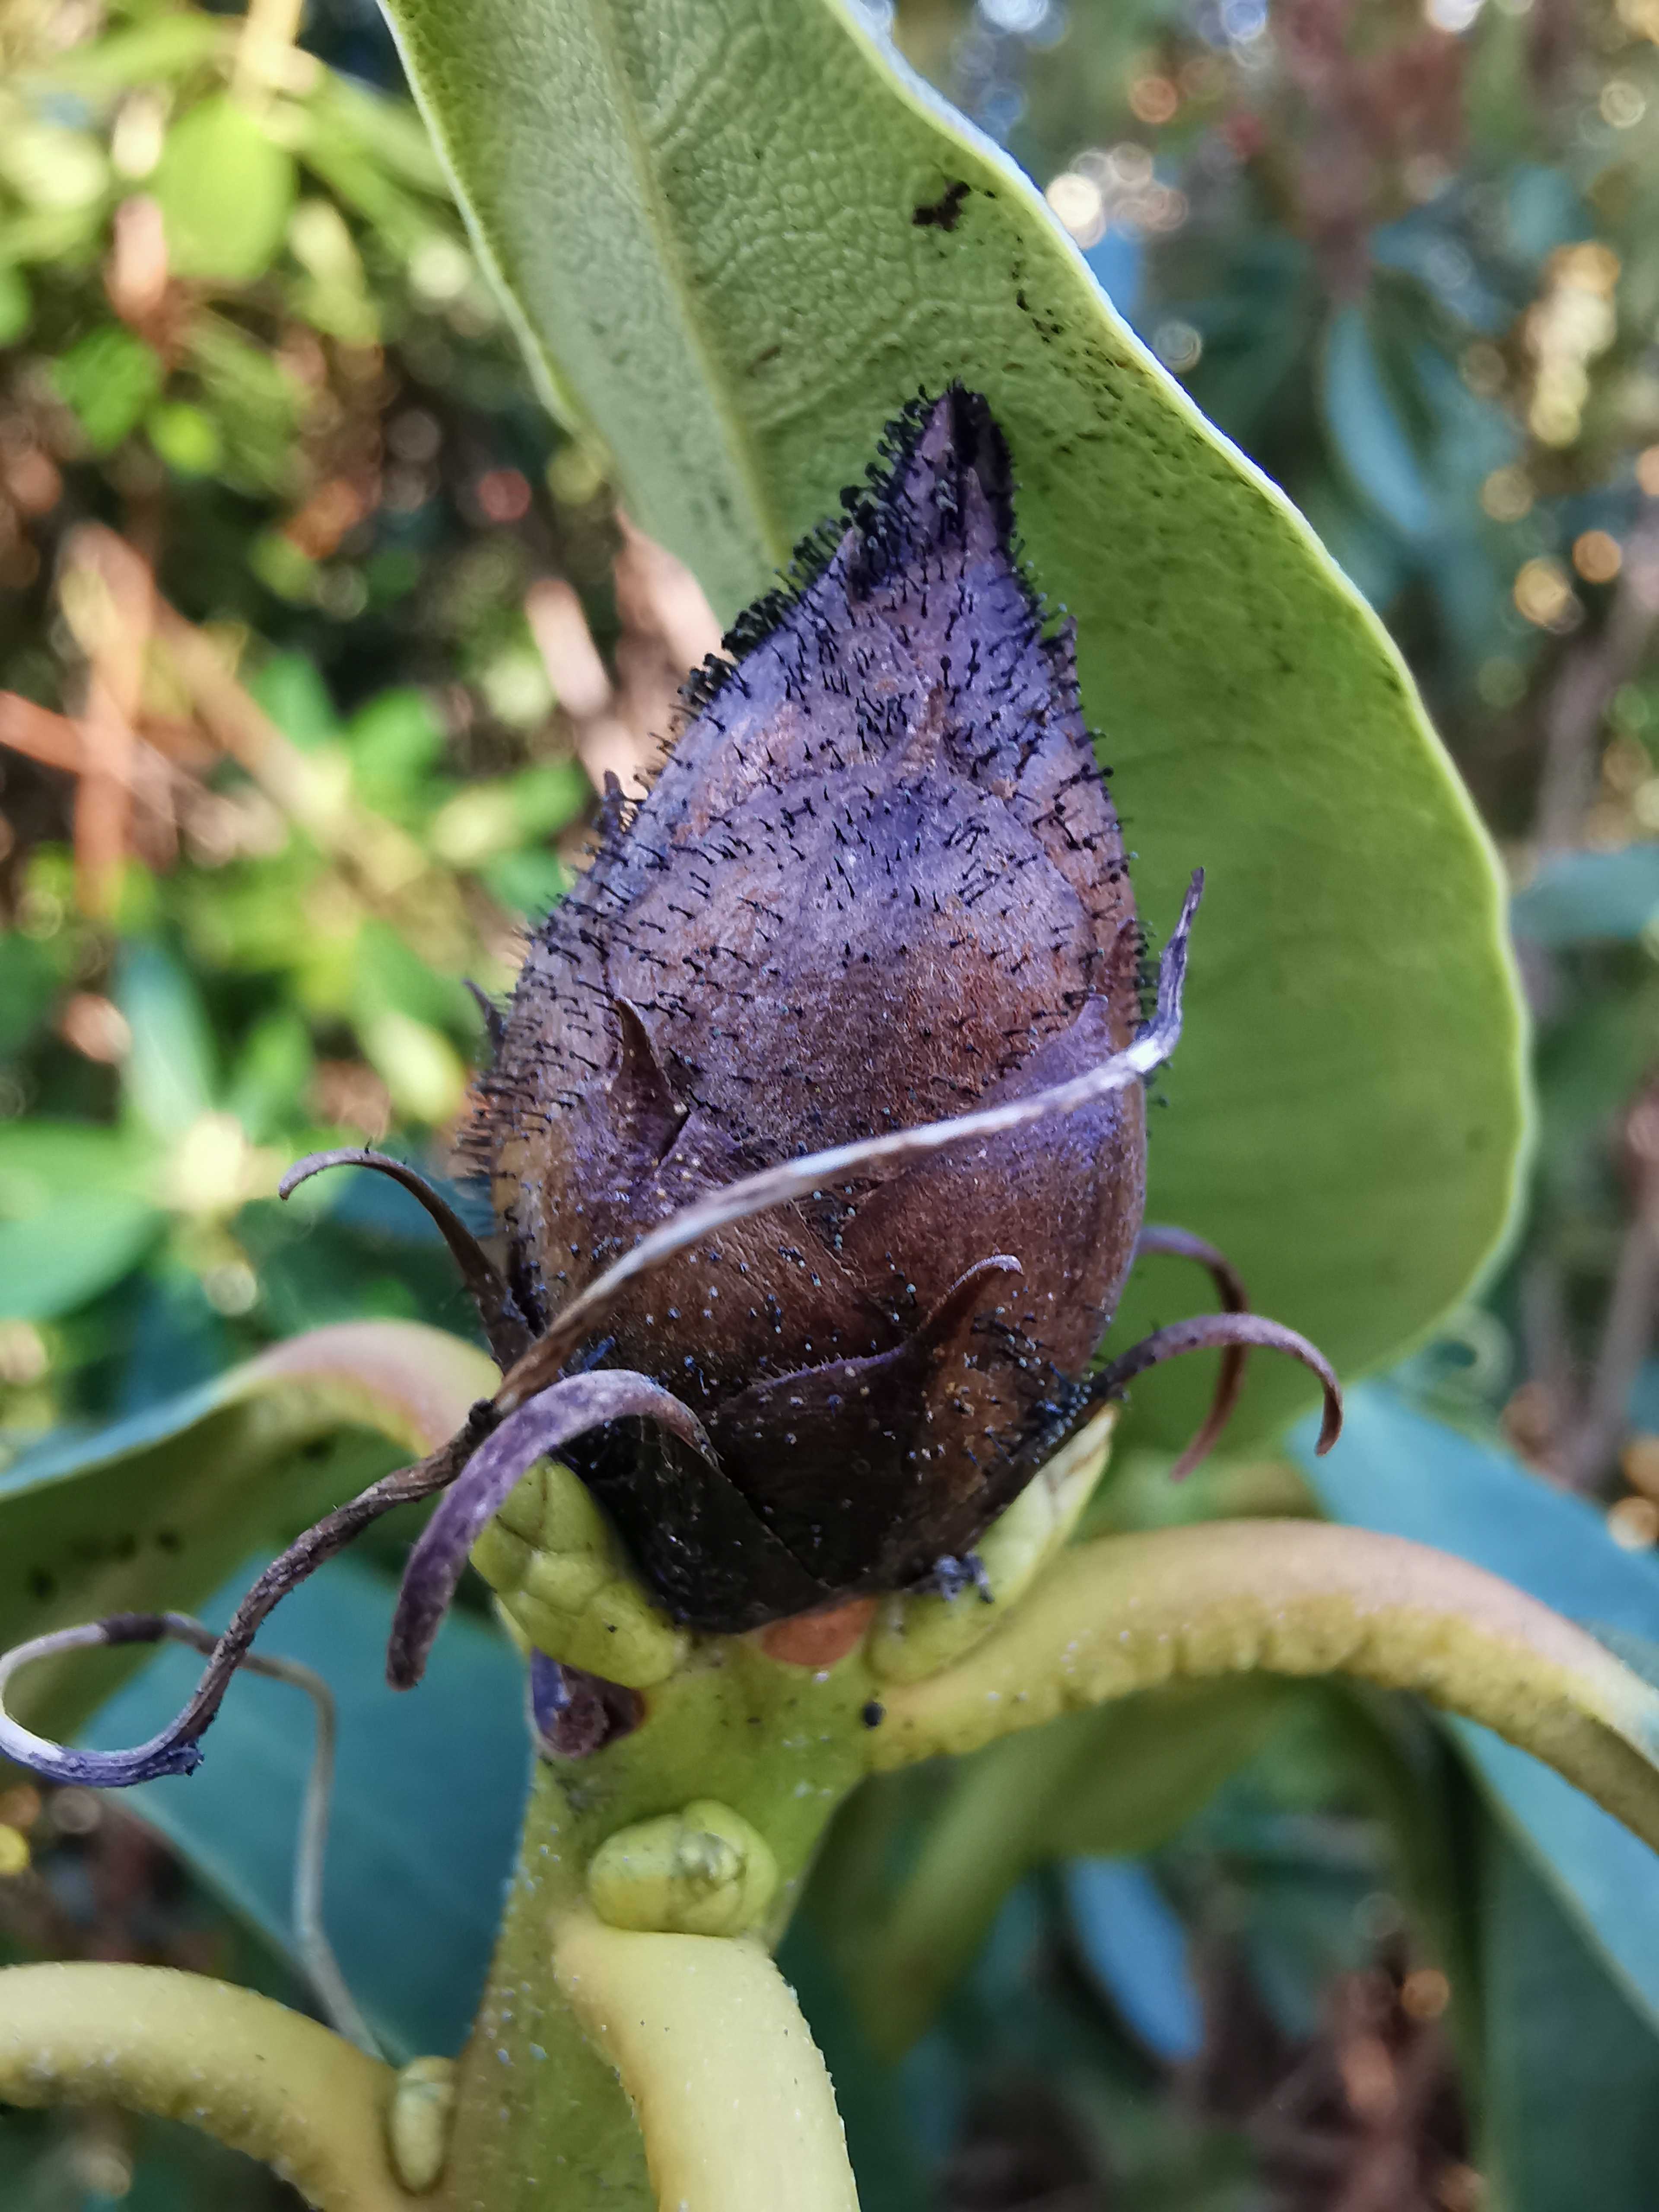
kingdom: Fungi
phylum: Ascomycota
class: Dothideomycetes
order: Pleosporales
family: Melanommataceae
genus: Seifertia
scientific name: Seifertia azaleae
